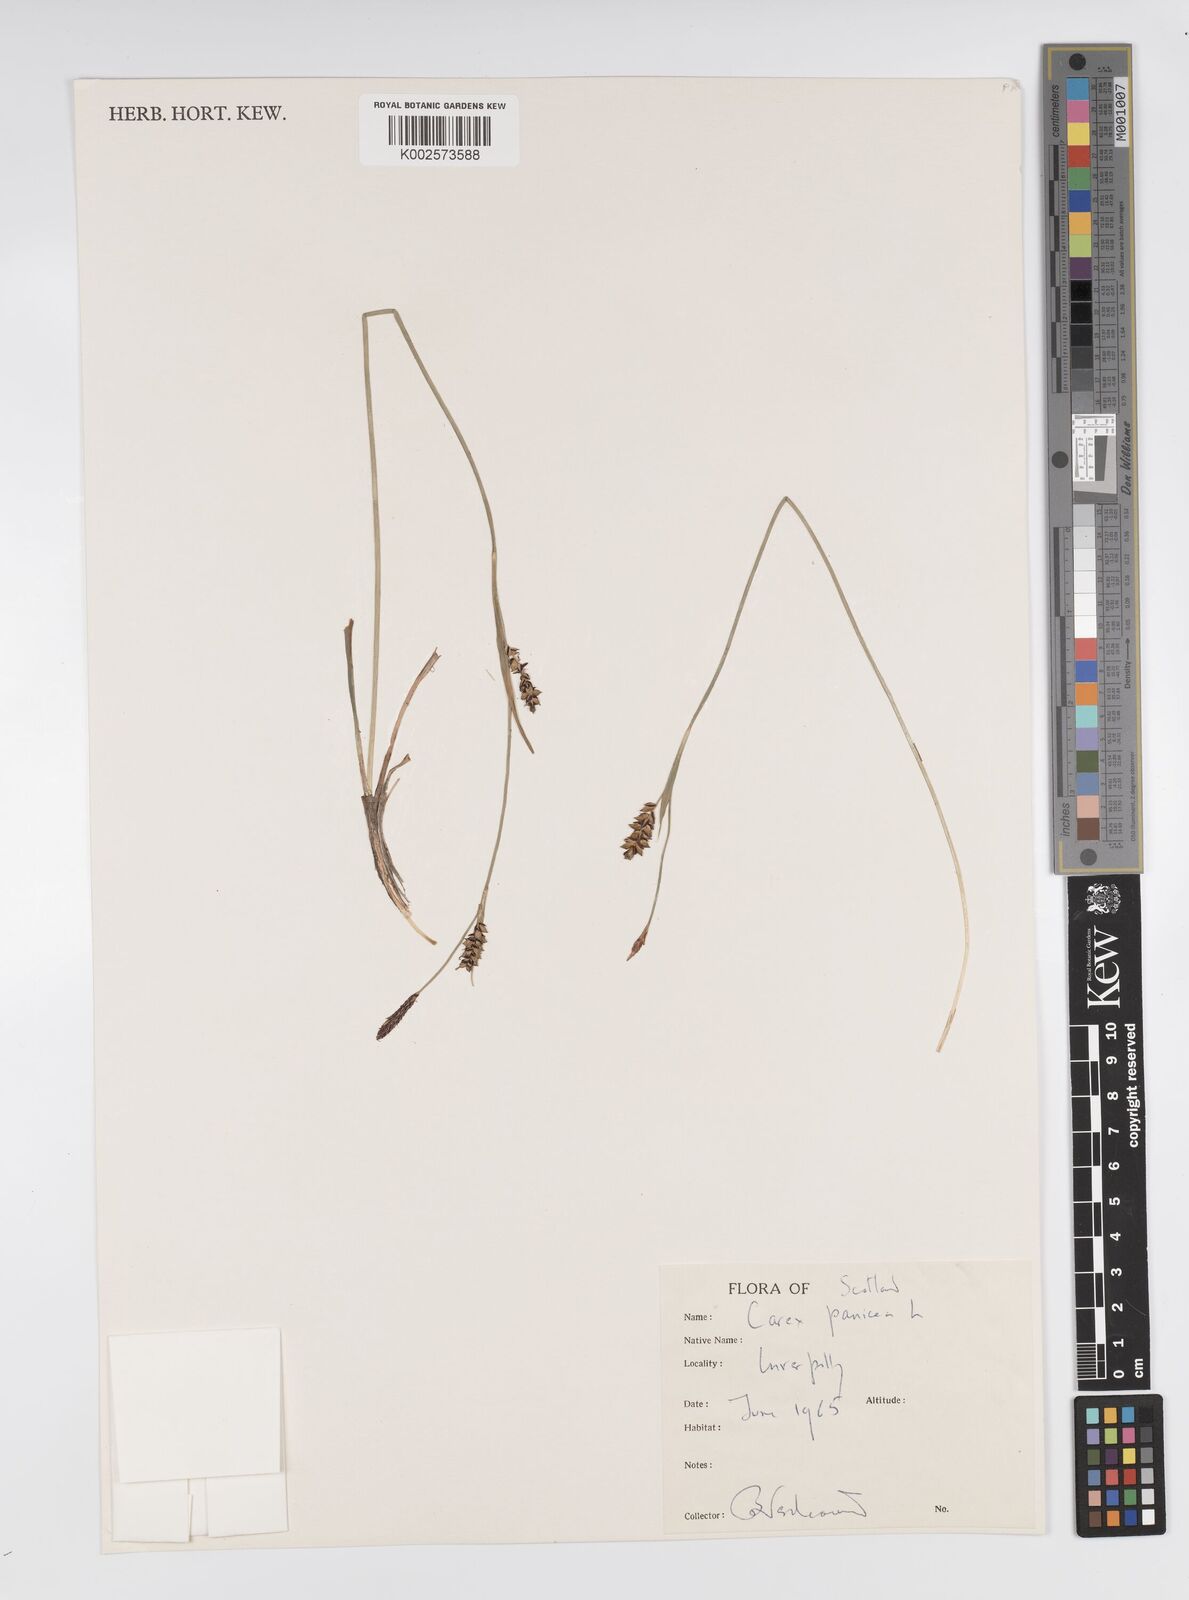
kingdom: Plantae
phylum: Tracheophyta
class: Liliopsida
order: Poales
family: Cyperaceae
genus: Carex
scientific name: Carex panicea
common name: Carnation sedge
